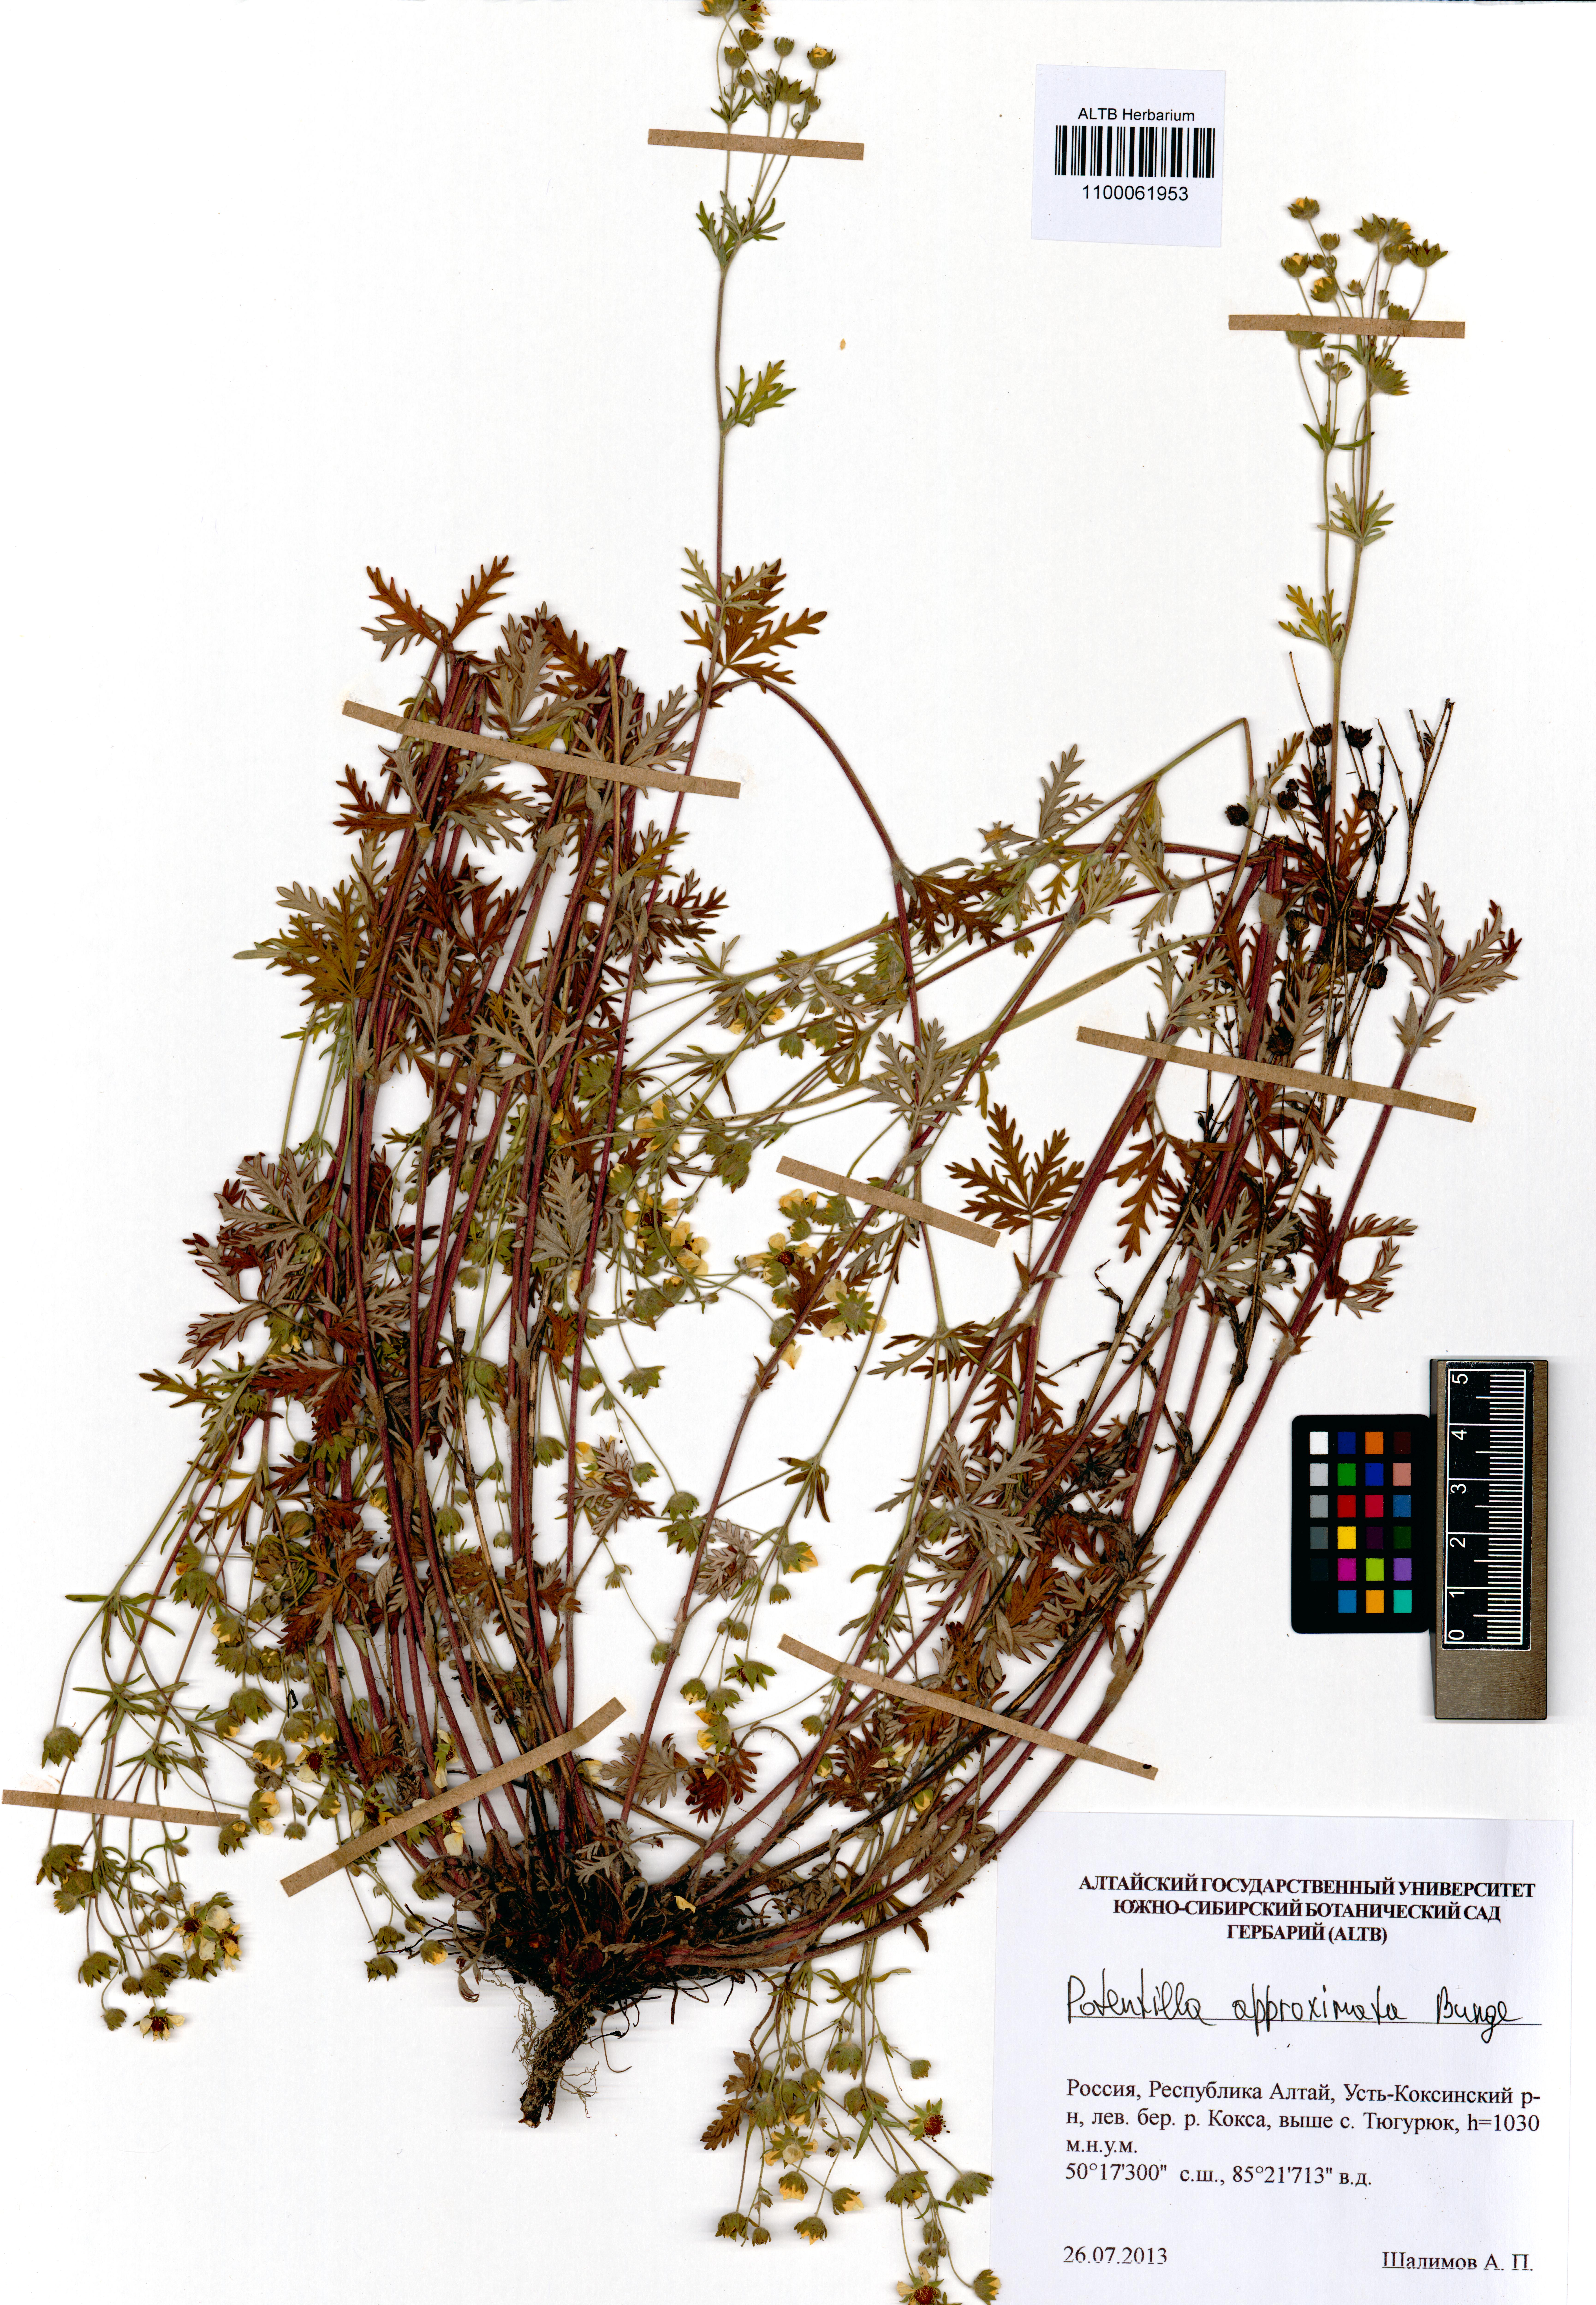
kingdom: Plantae
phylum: Tracheophyta
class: Magnoliopsida
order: Rosales
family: Rosaceae
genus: Potentilla
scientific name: Potentilla conferta
